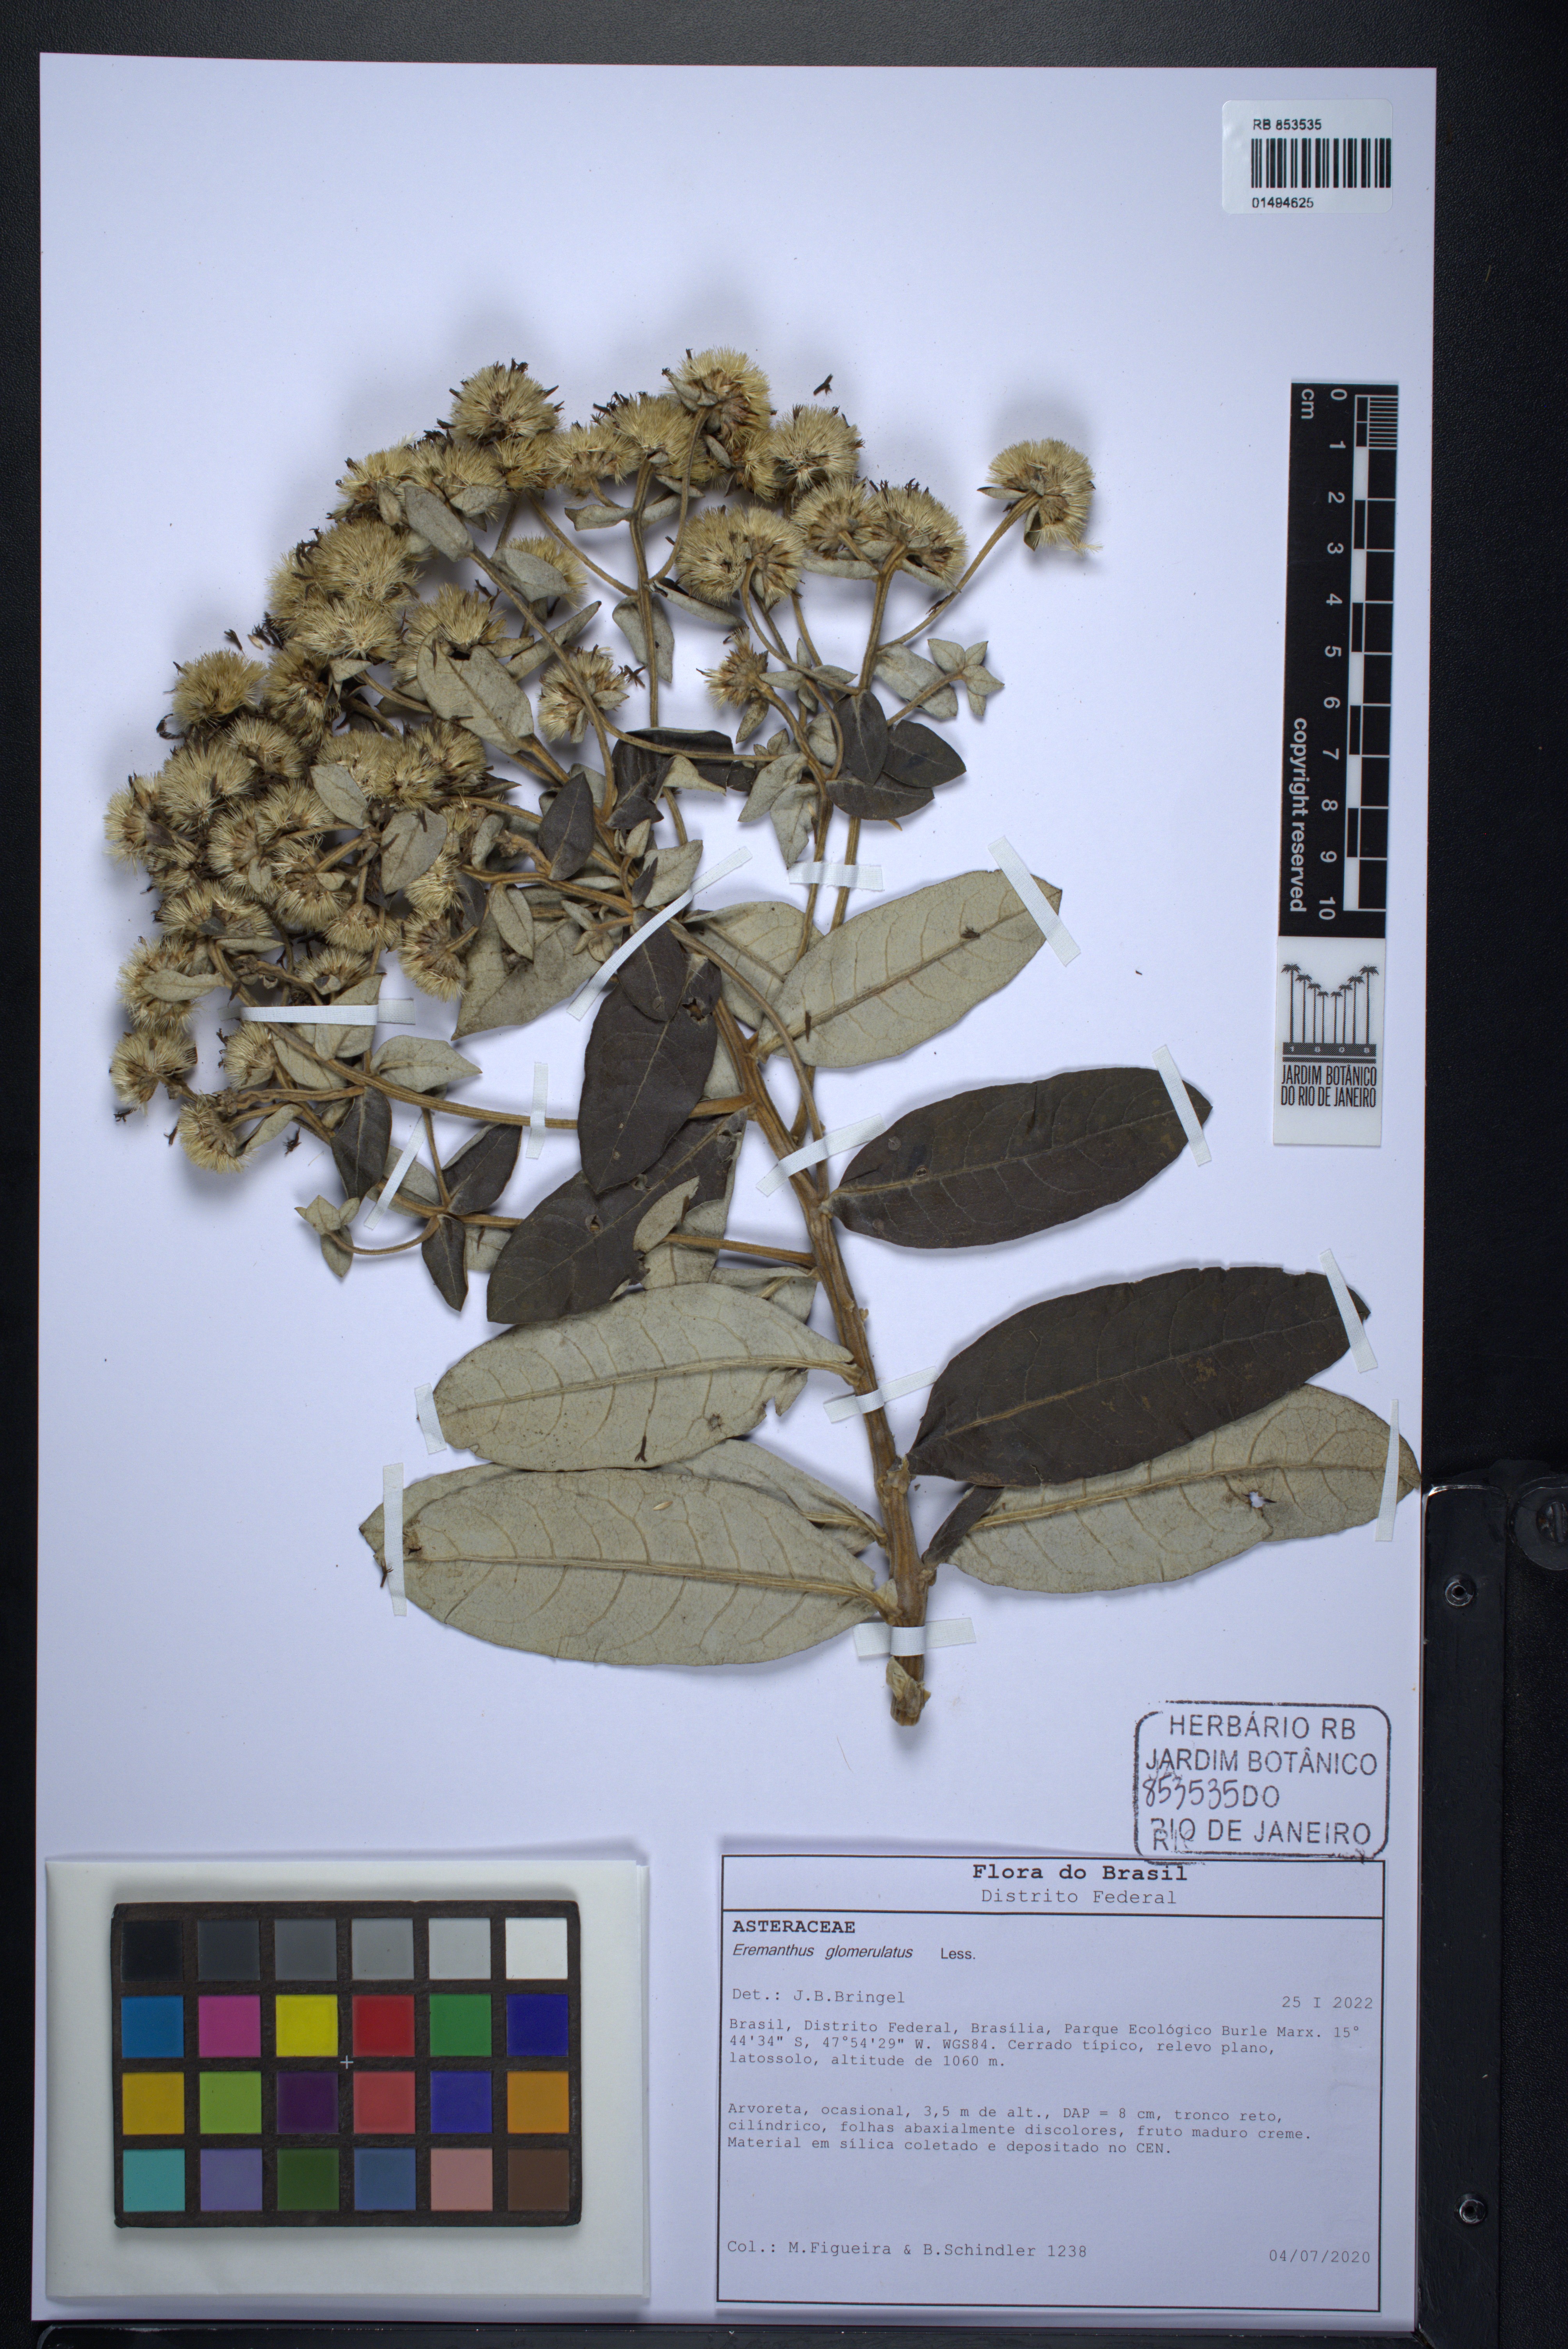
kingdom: Plantae
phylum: Tracheophyta
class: Magnoliopsida
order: Asterales
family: Asteraceae
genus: Eremanthus
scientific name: Eremanthus glomerulatus
